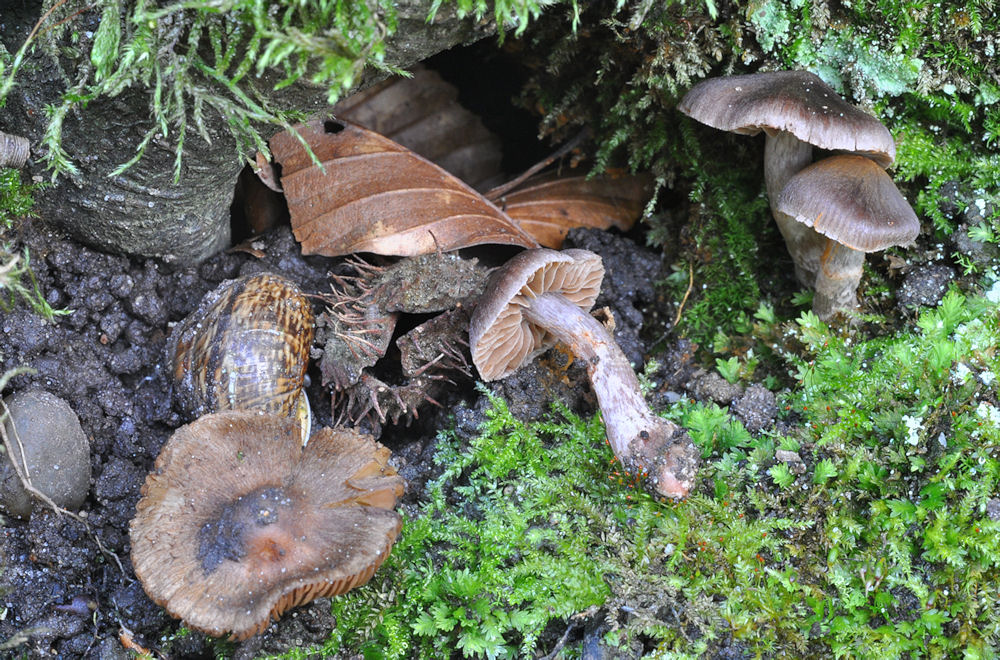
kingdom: Fungi
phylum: Basidiomycota
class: Agaricomycetes
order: Agaricales
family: Cortinariaceae
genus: Cortinarius
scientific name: Cortinarius decipiens
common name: blåsort slørhat
